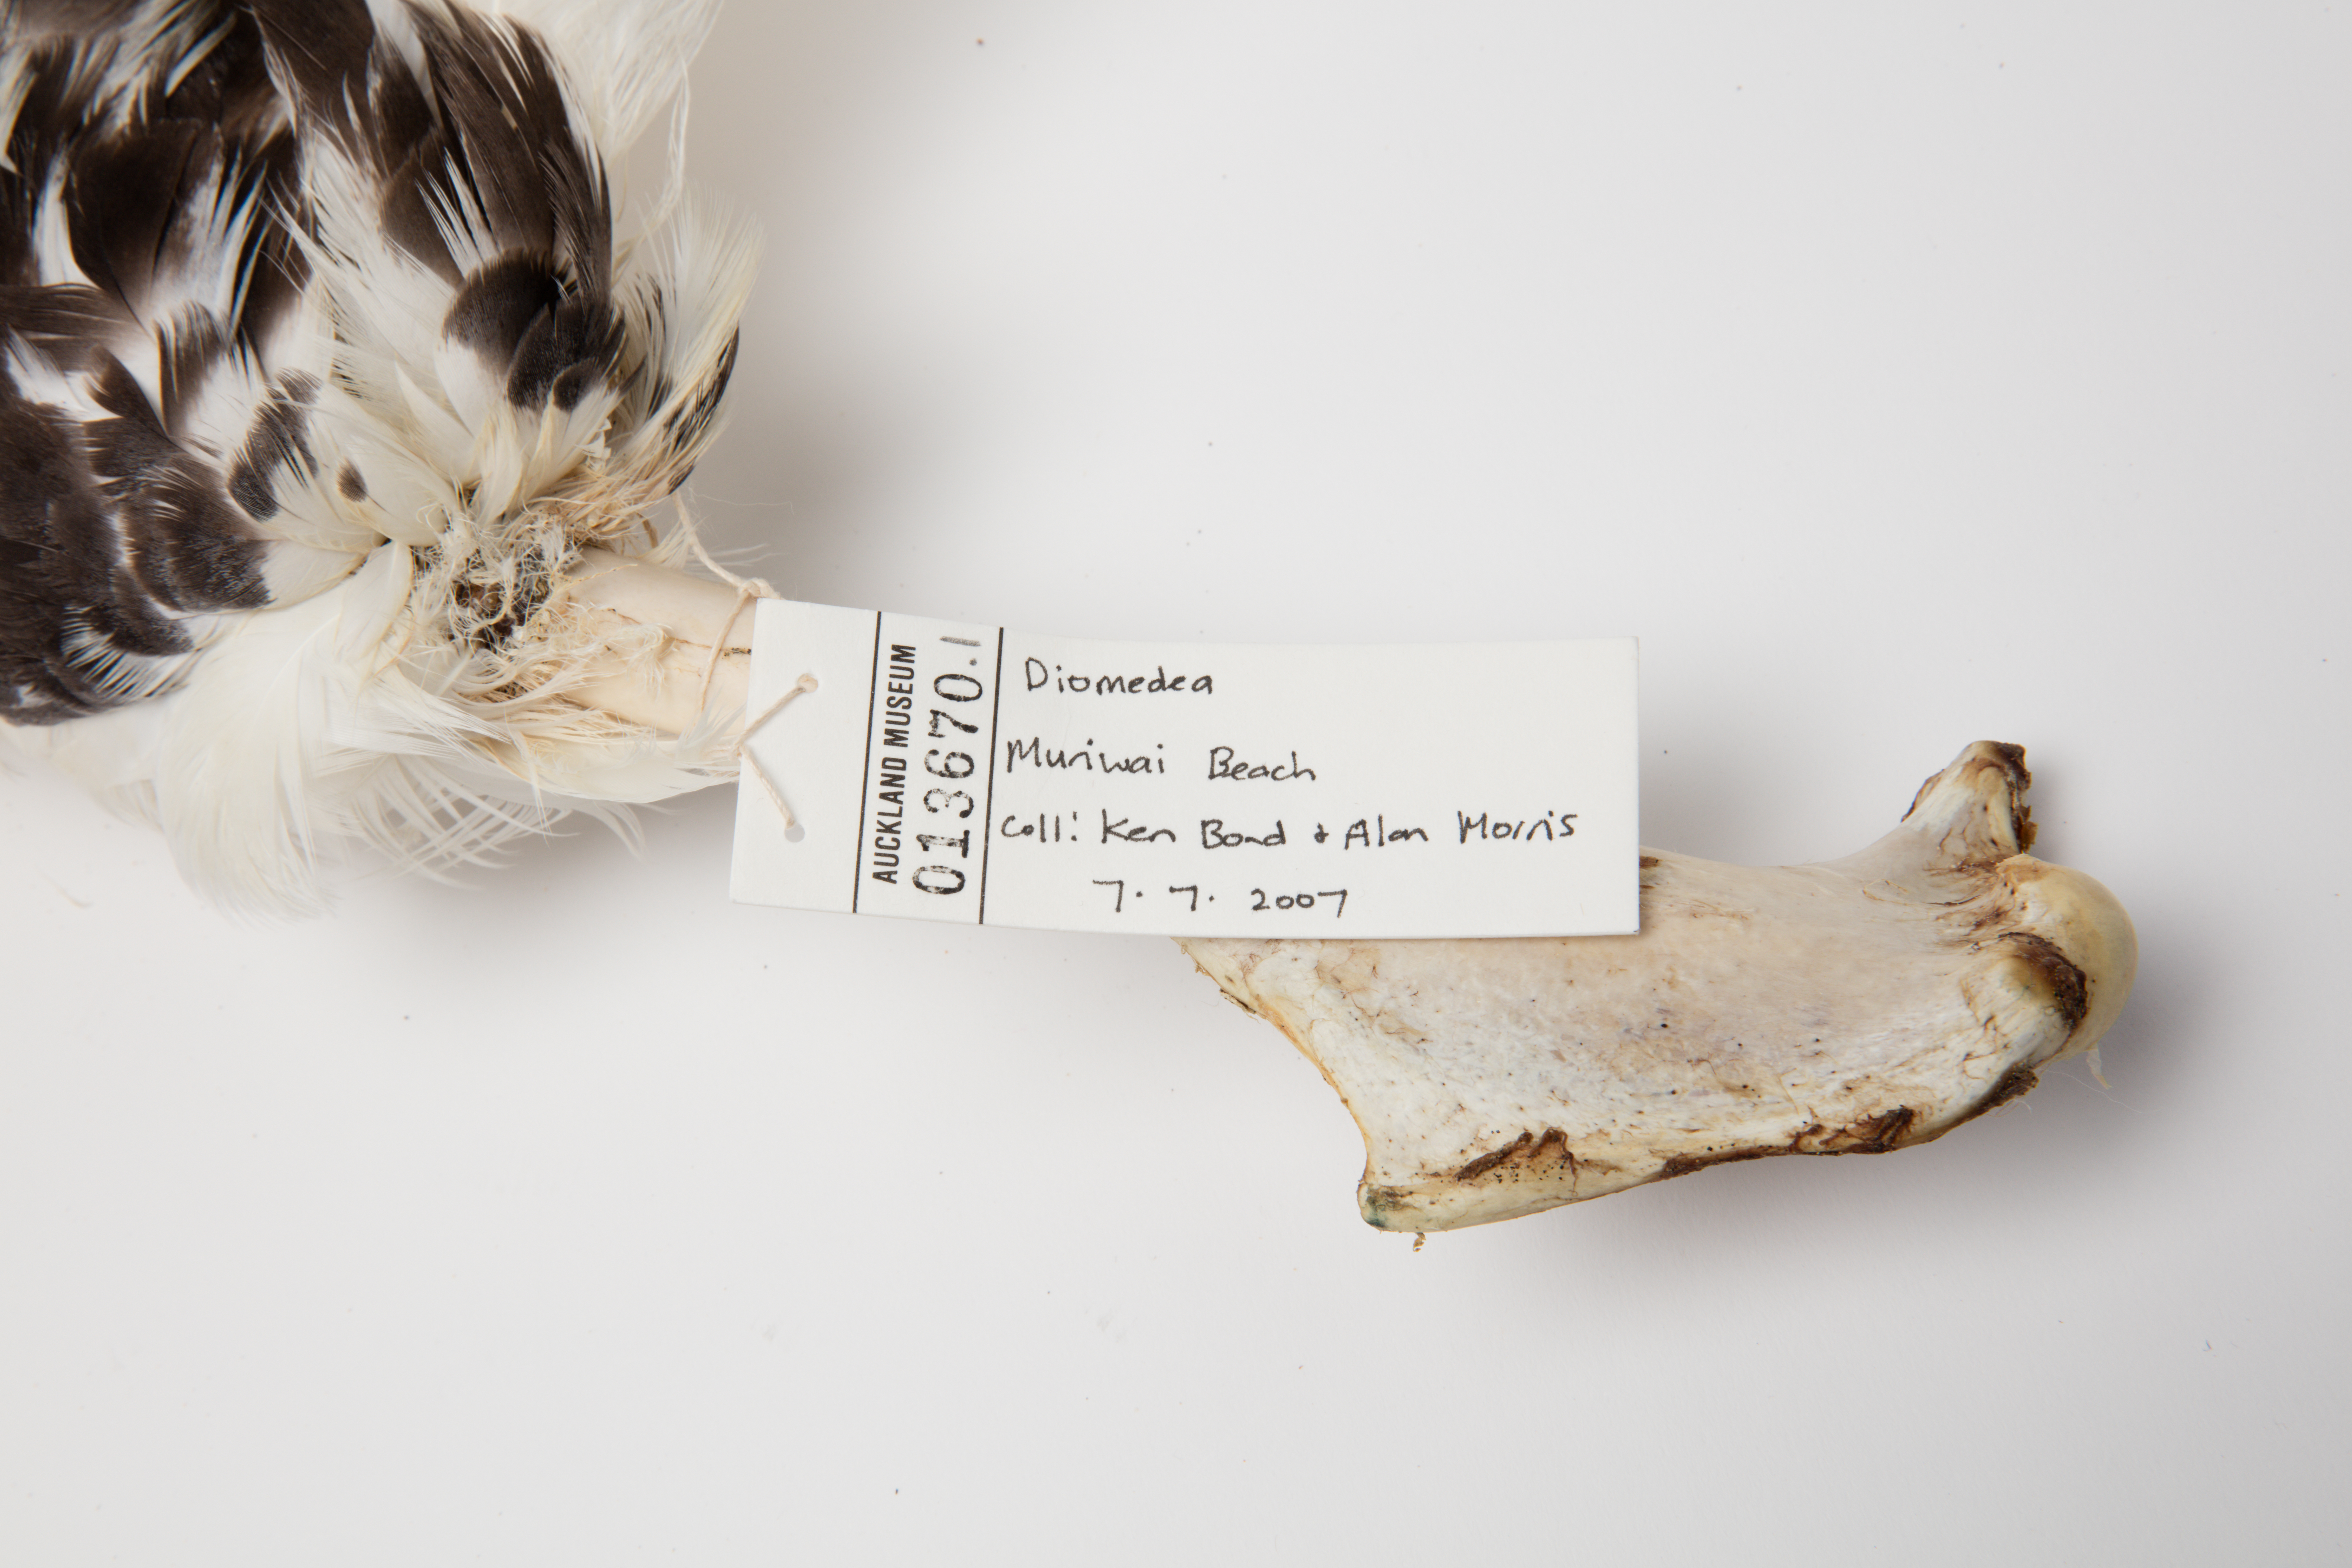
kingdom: Animalia
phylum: Chordata
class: Aves
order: Procellariiformes
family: Diomedeidae
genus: Diomedea
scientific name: Diomedea
